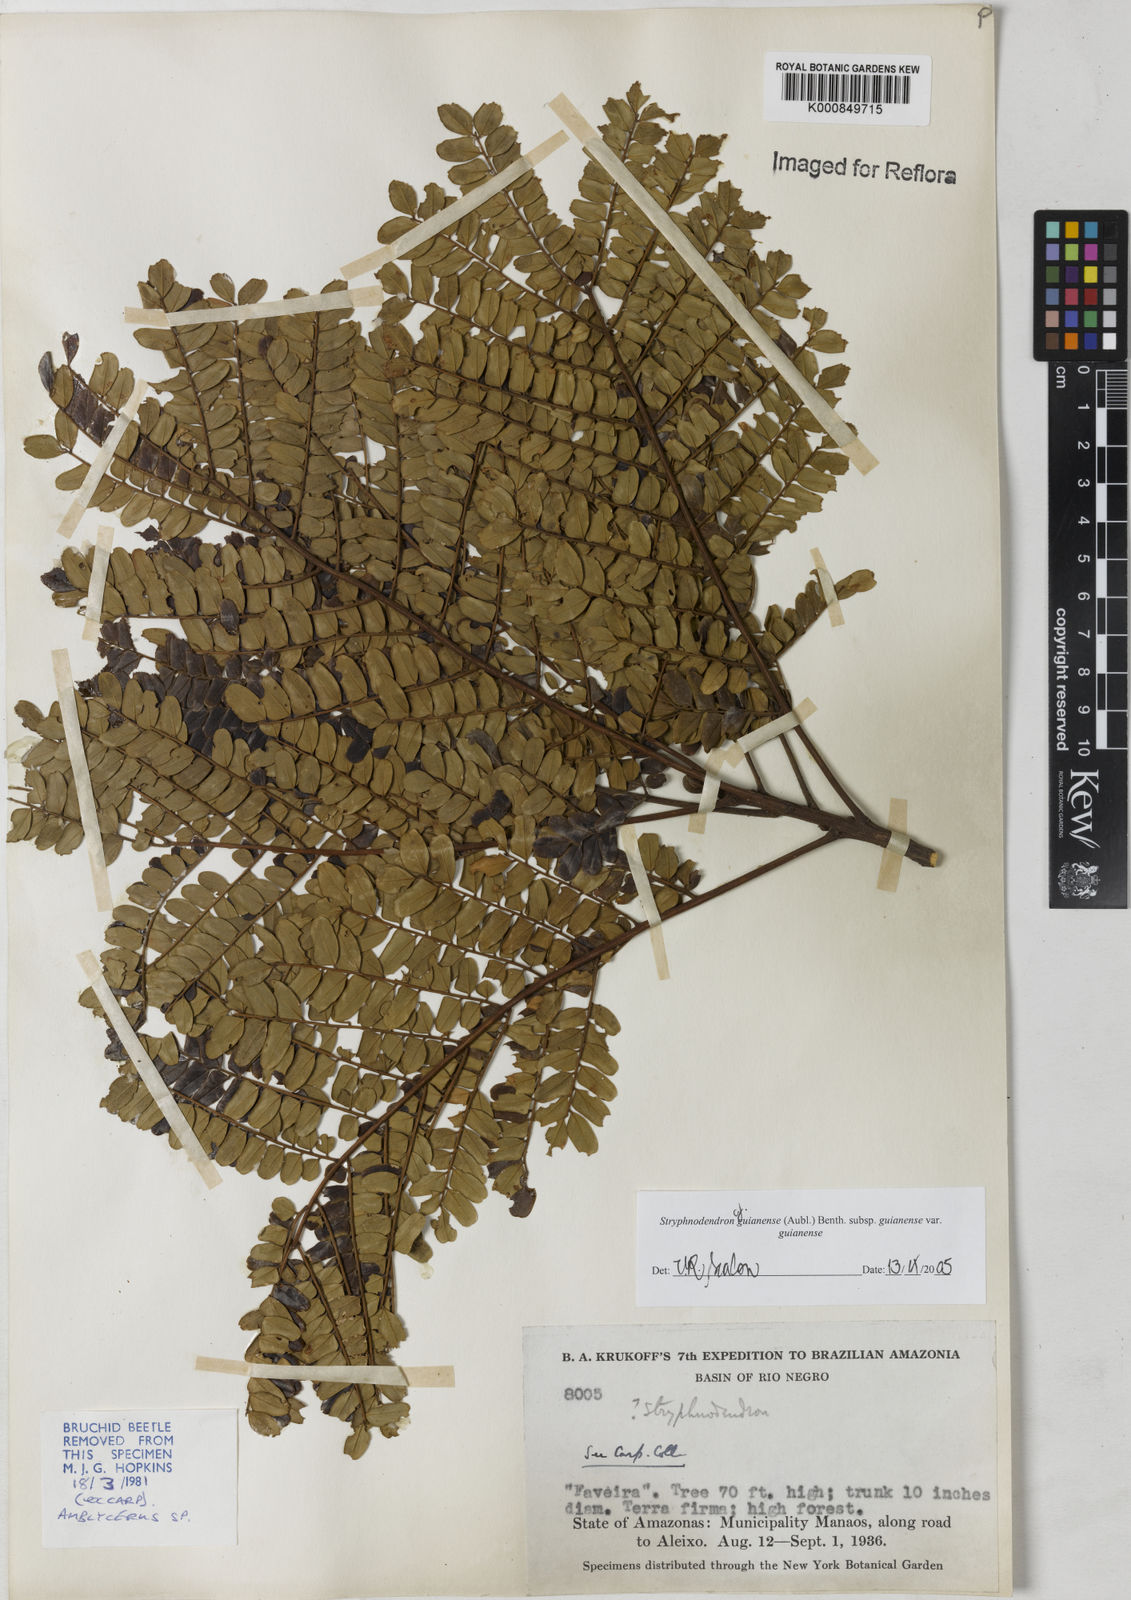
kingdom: Plantae
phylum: Tracheophyta
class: Magnoliopsida
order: Fabales
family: Fabaceae
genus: Stryphnodendron
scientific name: Stryphnodendron guianense
